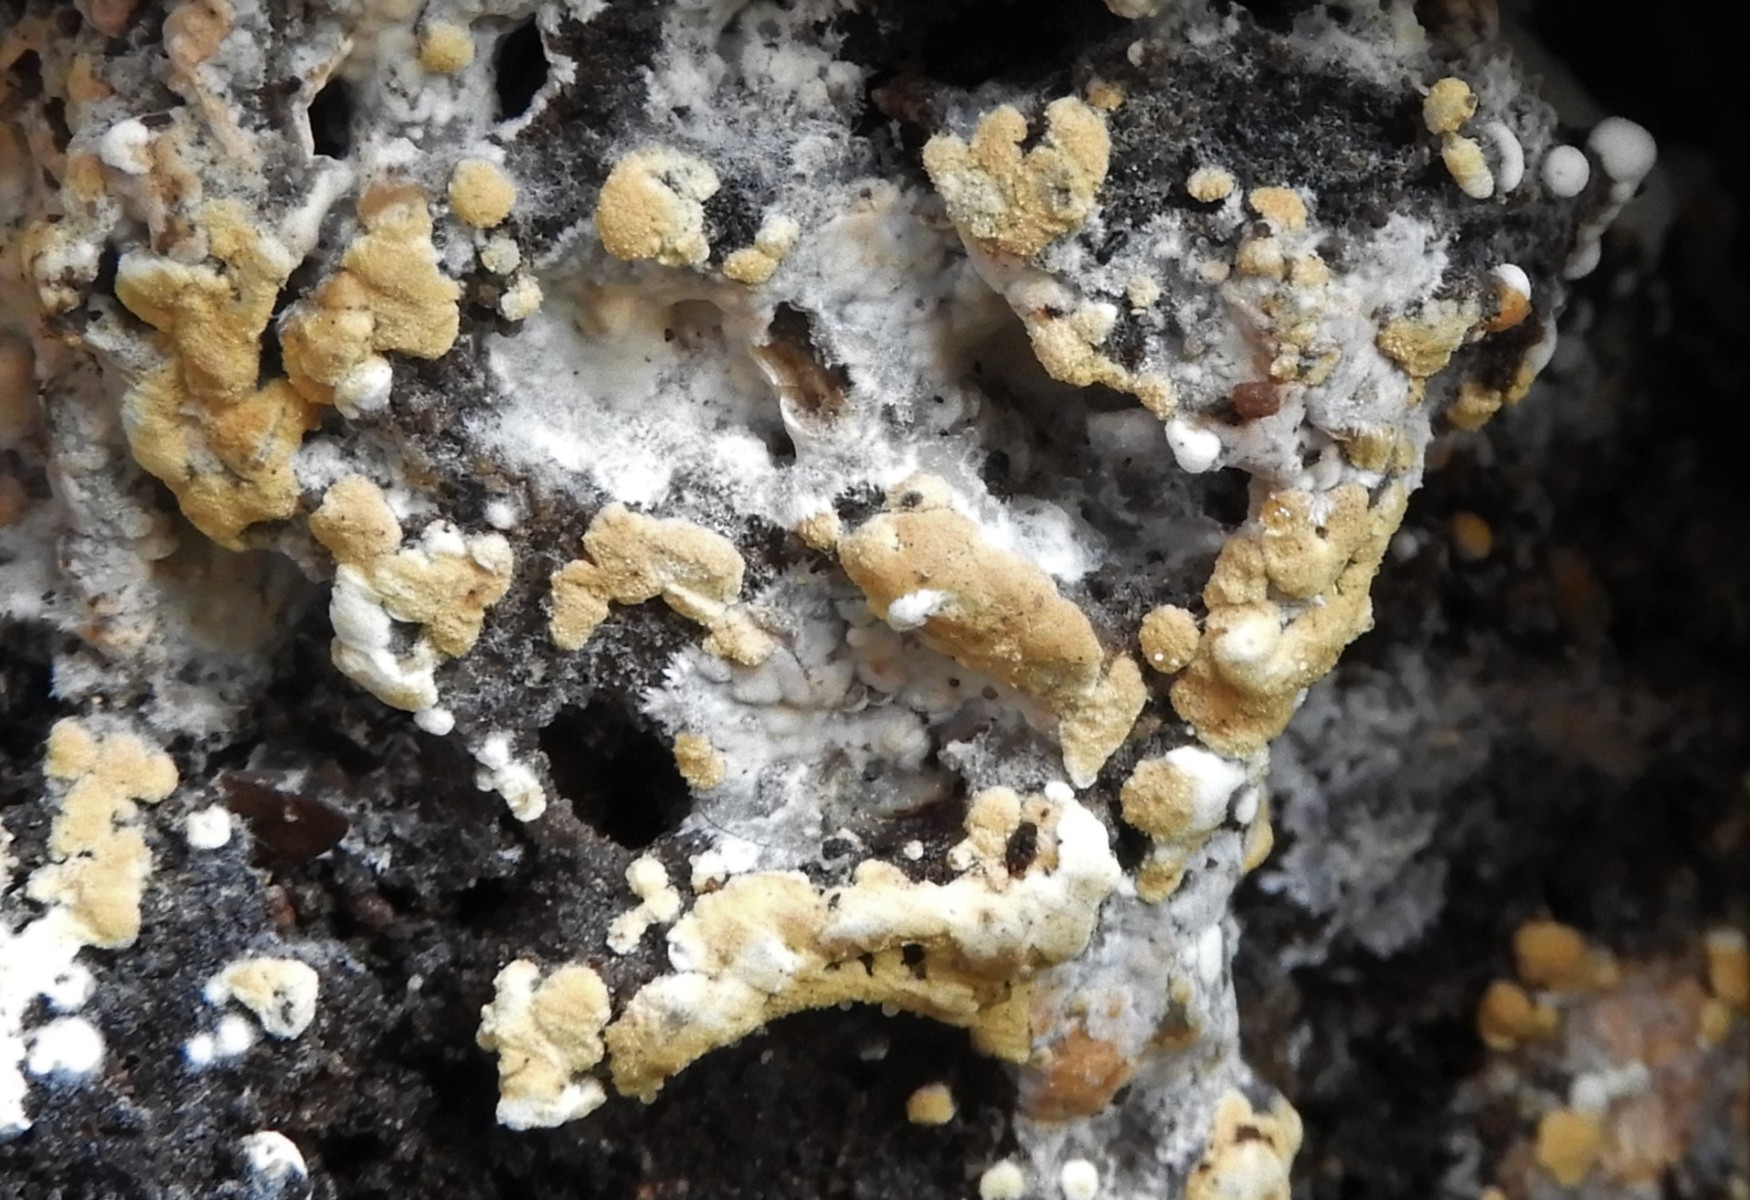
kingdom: Fungi
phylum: Basidiomycota
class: Agaricomycetes
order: Cantharellales
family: Botryobasidiaceae
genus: Botryobasidium
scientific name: Botryobasidium aureum
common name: gylden spindhinde
